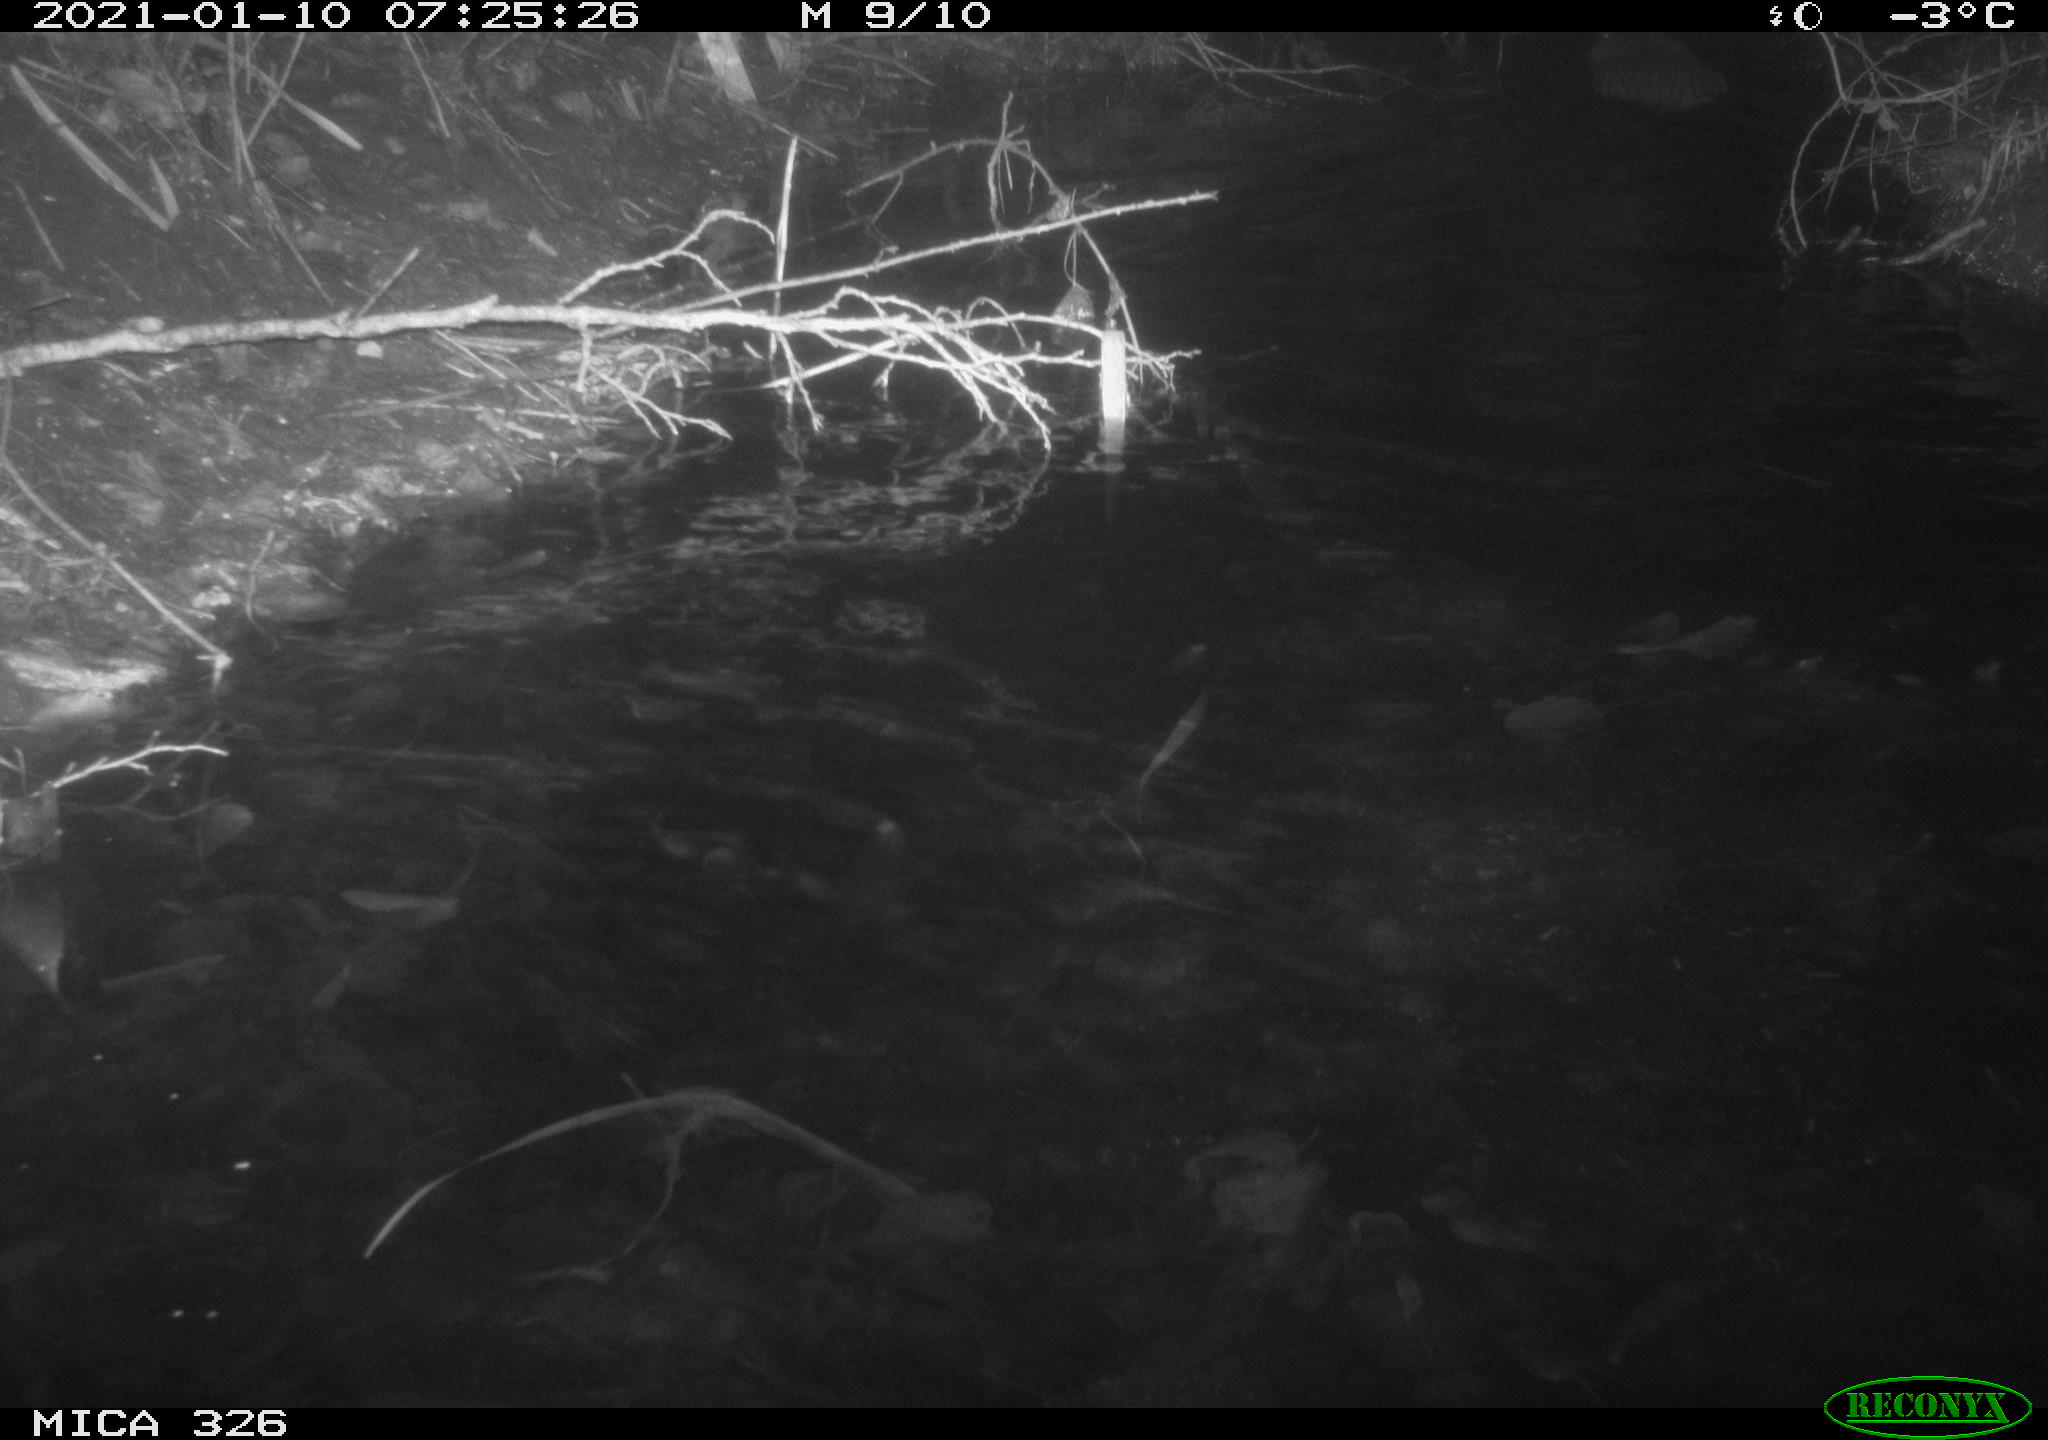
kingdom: Animalia
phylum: Chordata
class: Mammalia
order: Rodentia
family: Myocastoridae
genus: Myocastor
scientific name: Myocastor coypus
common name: Coypu
